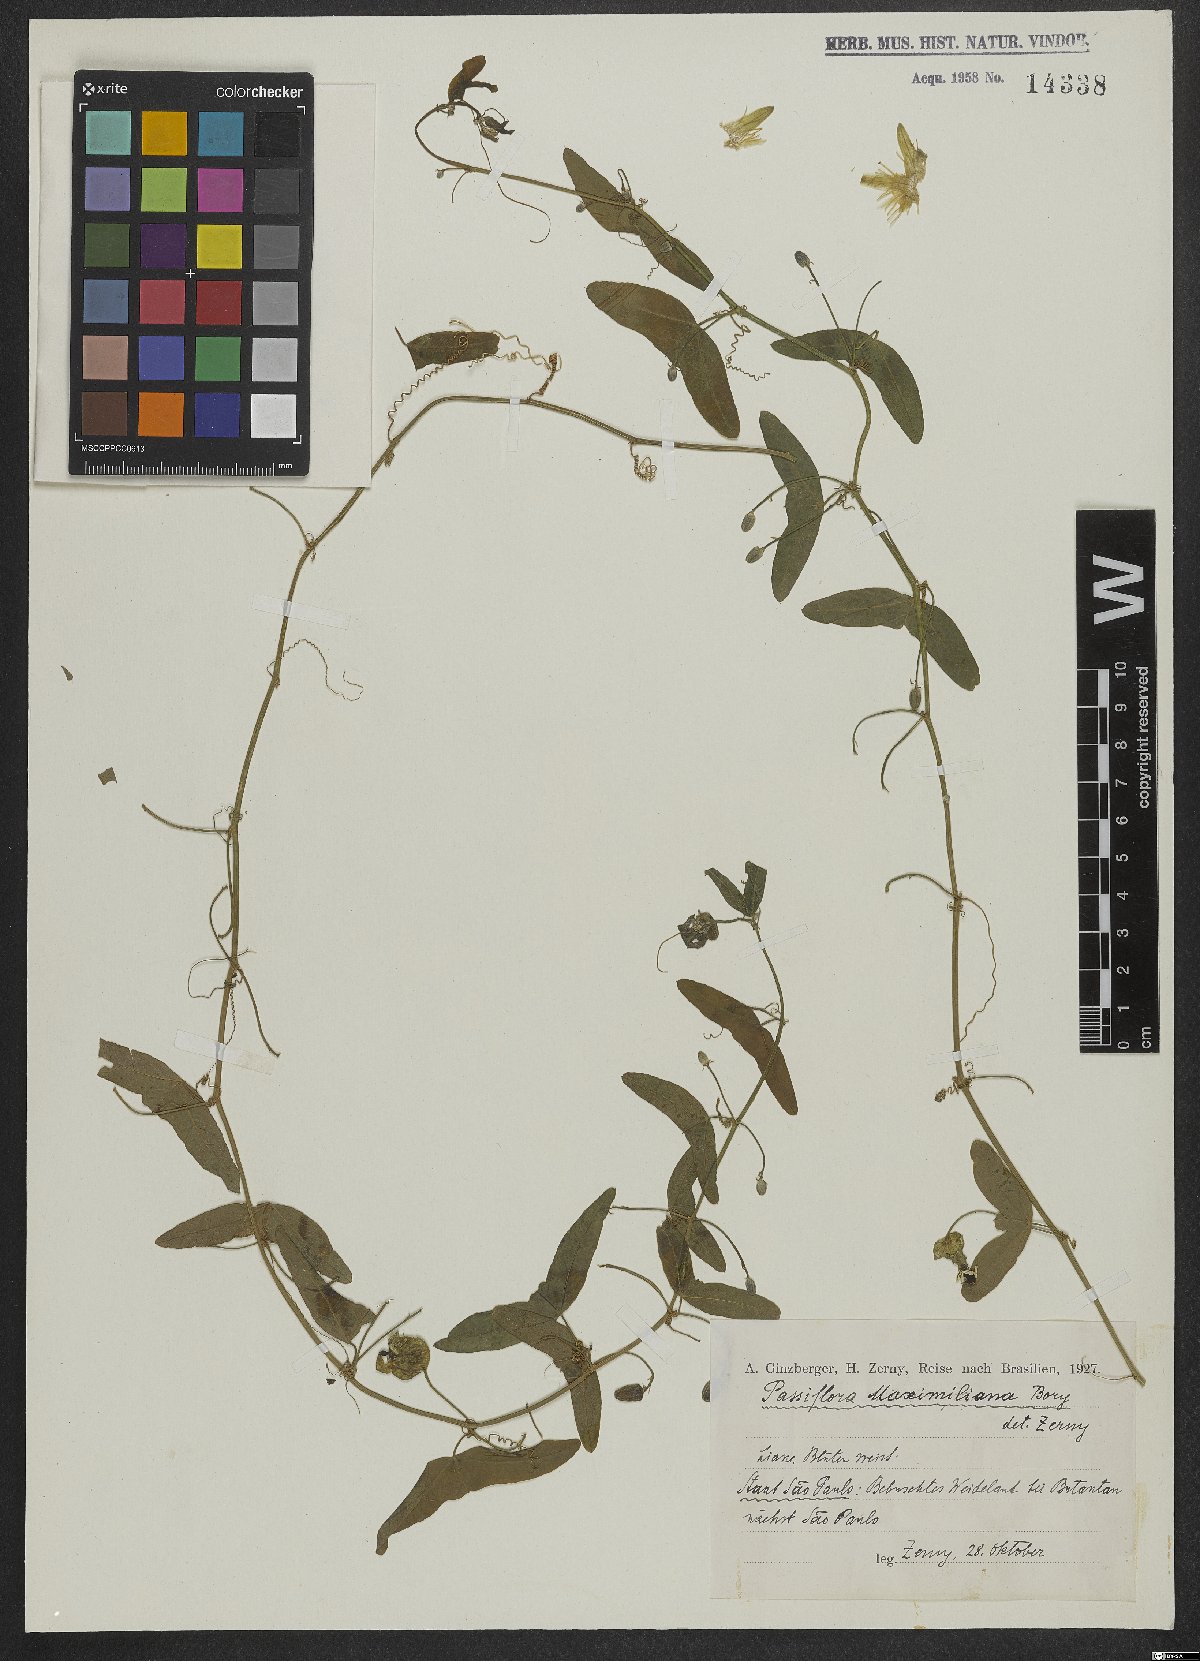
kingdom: Plantae
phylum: Tracheophyta
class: Magnoliopsida
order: Malpighiales
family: Passifloraceae
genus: Passiflora
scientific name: Passiflora misera
